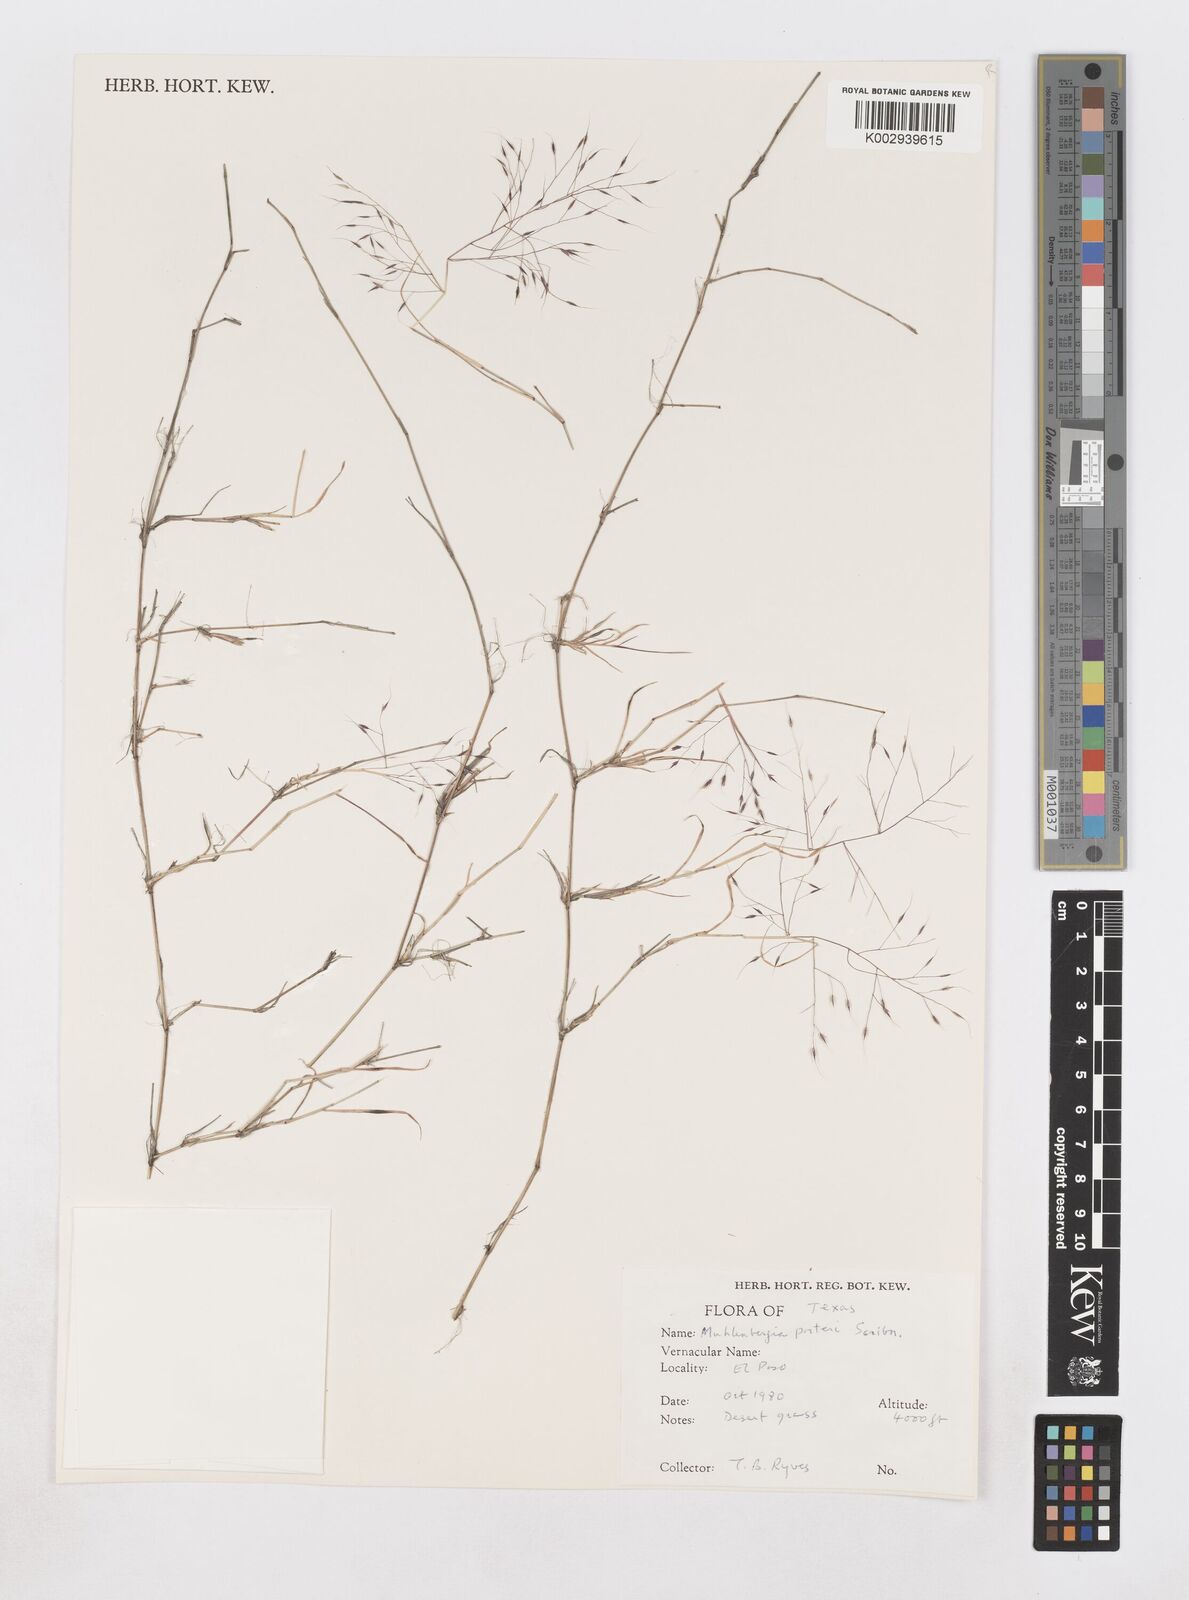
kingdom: Plantae
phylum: Tracheophyta
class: Liliopsida
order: Poales
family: Poaceae
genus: Muhlenbergia
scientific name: Muhlenbergia porteri
